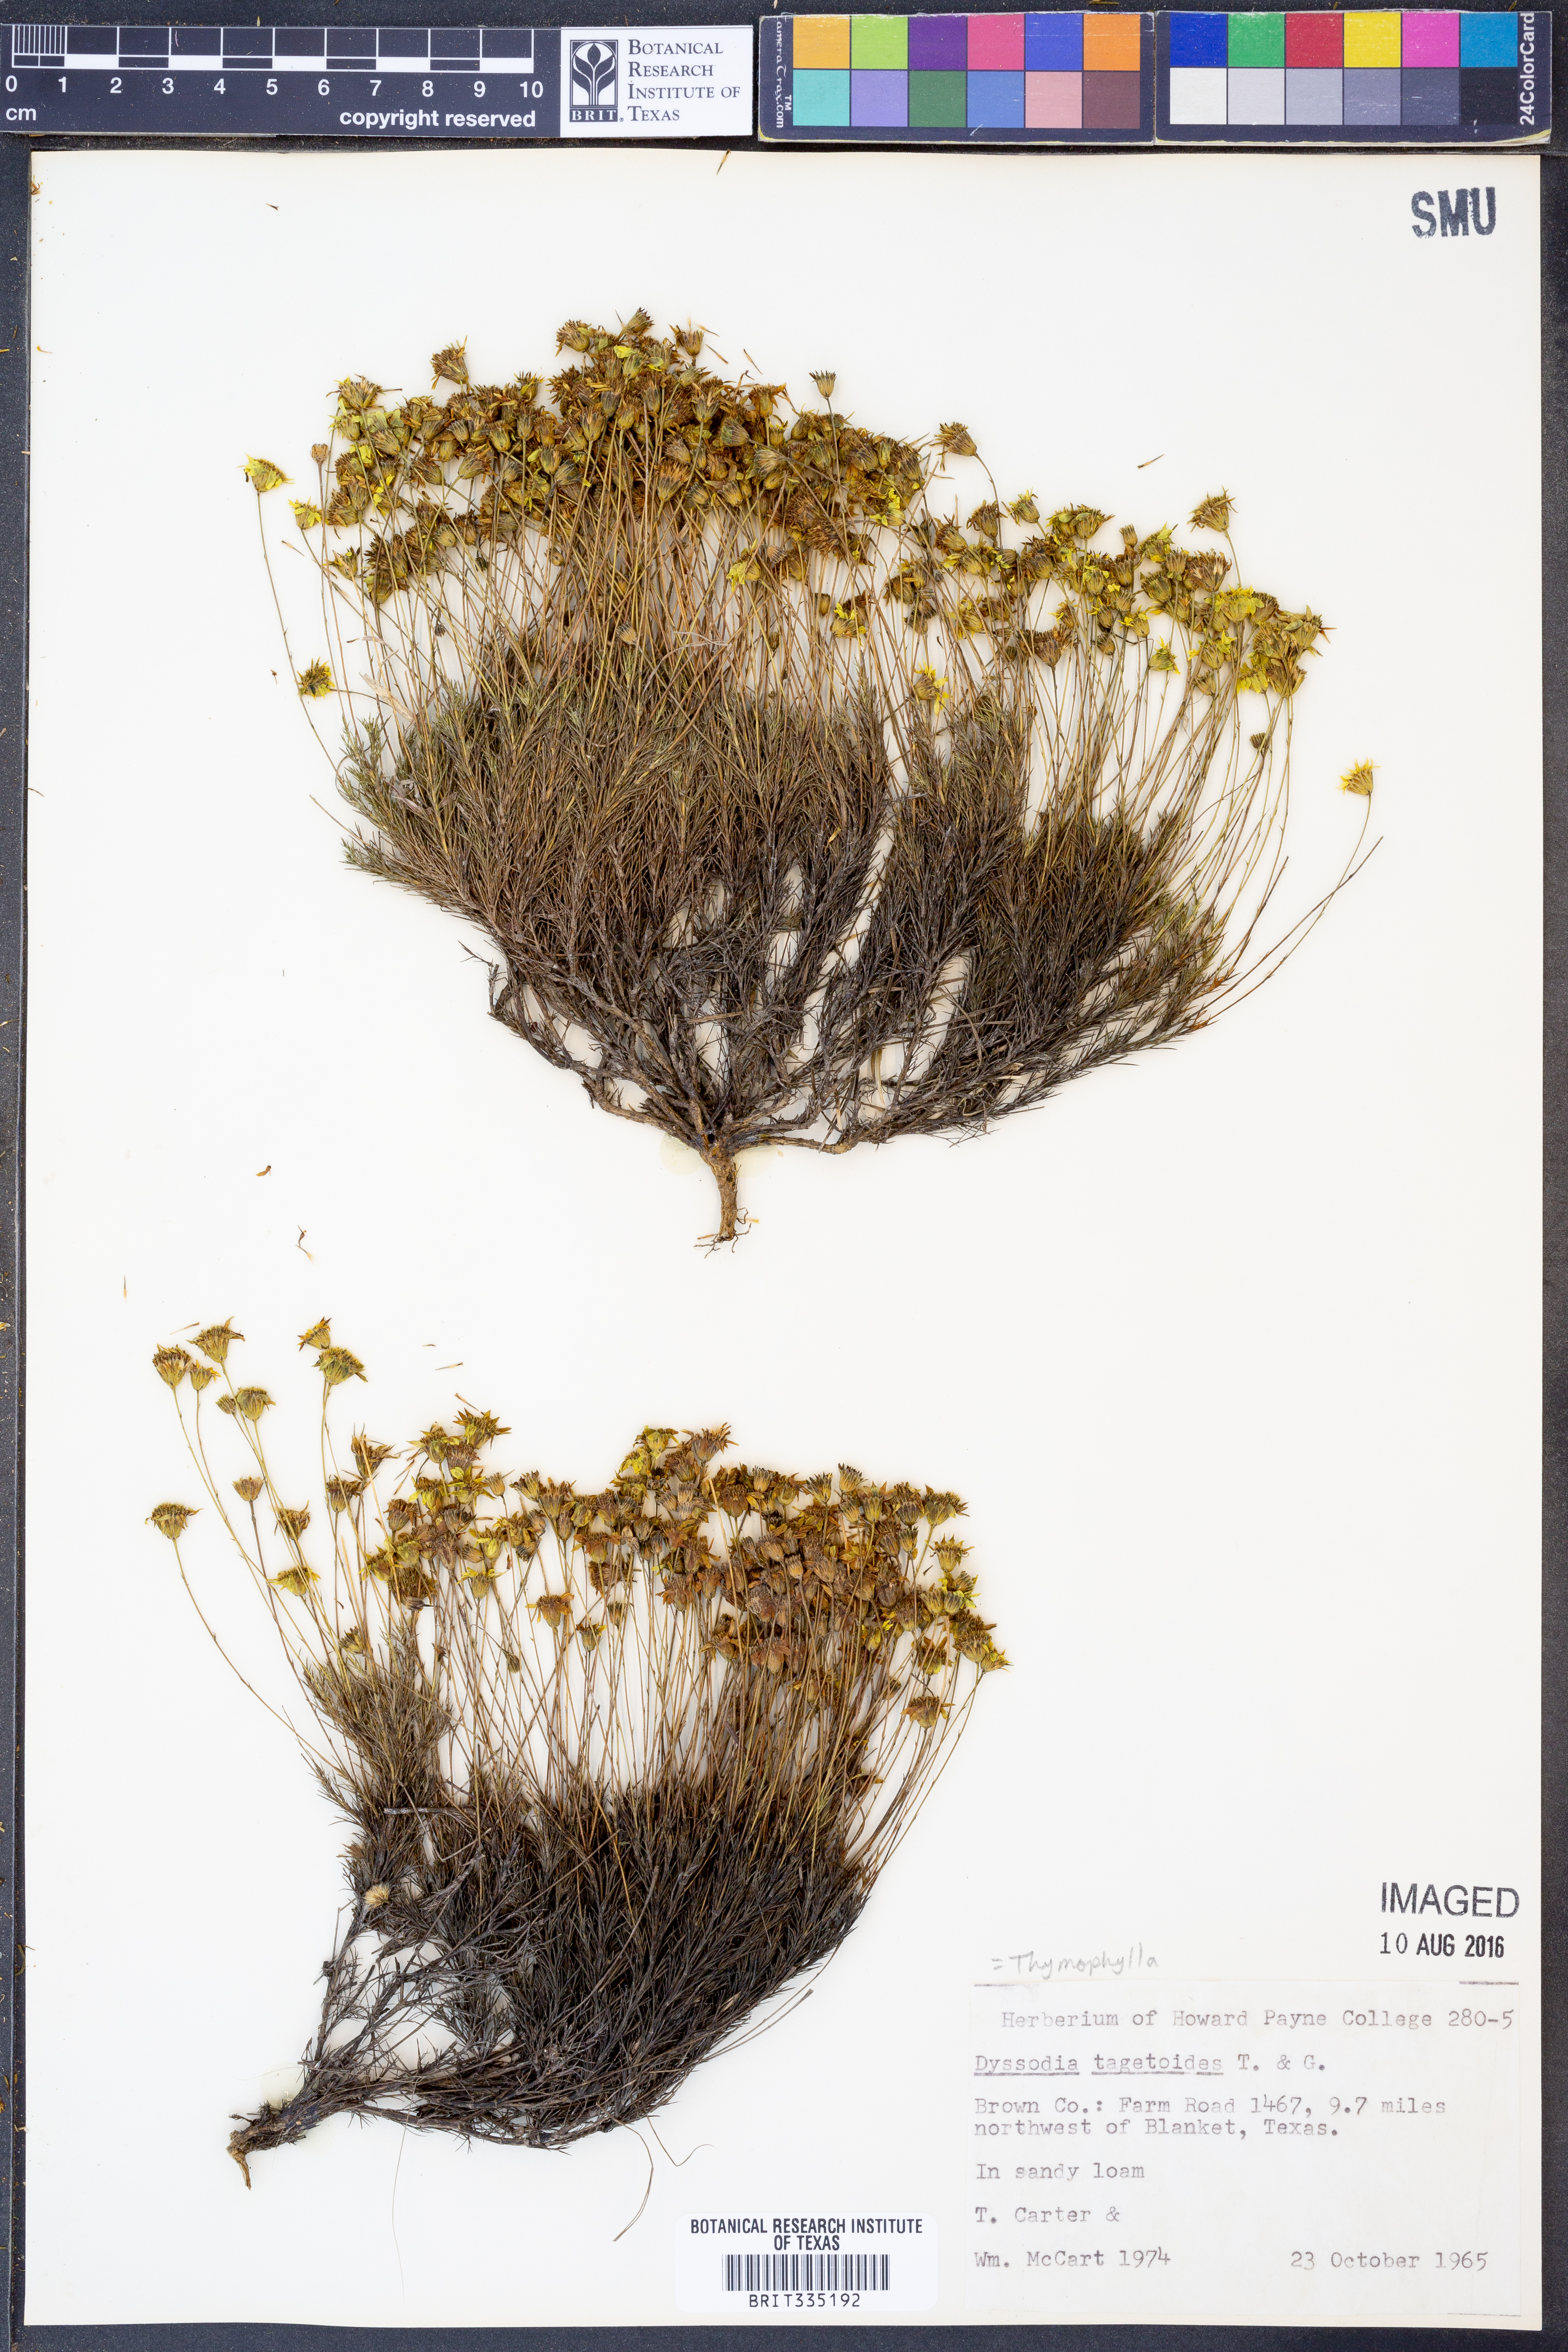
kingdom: Plantae
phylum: Tracheophyta
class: Magnoliopsida
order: Asterales
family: Asteraceae
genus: Dysodiopsis
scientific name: Dysodiopsis tagetoides
